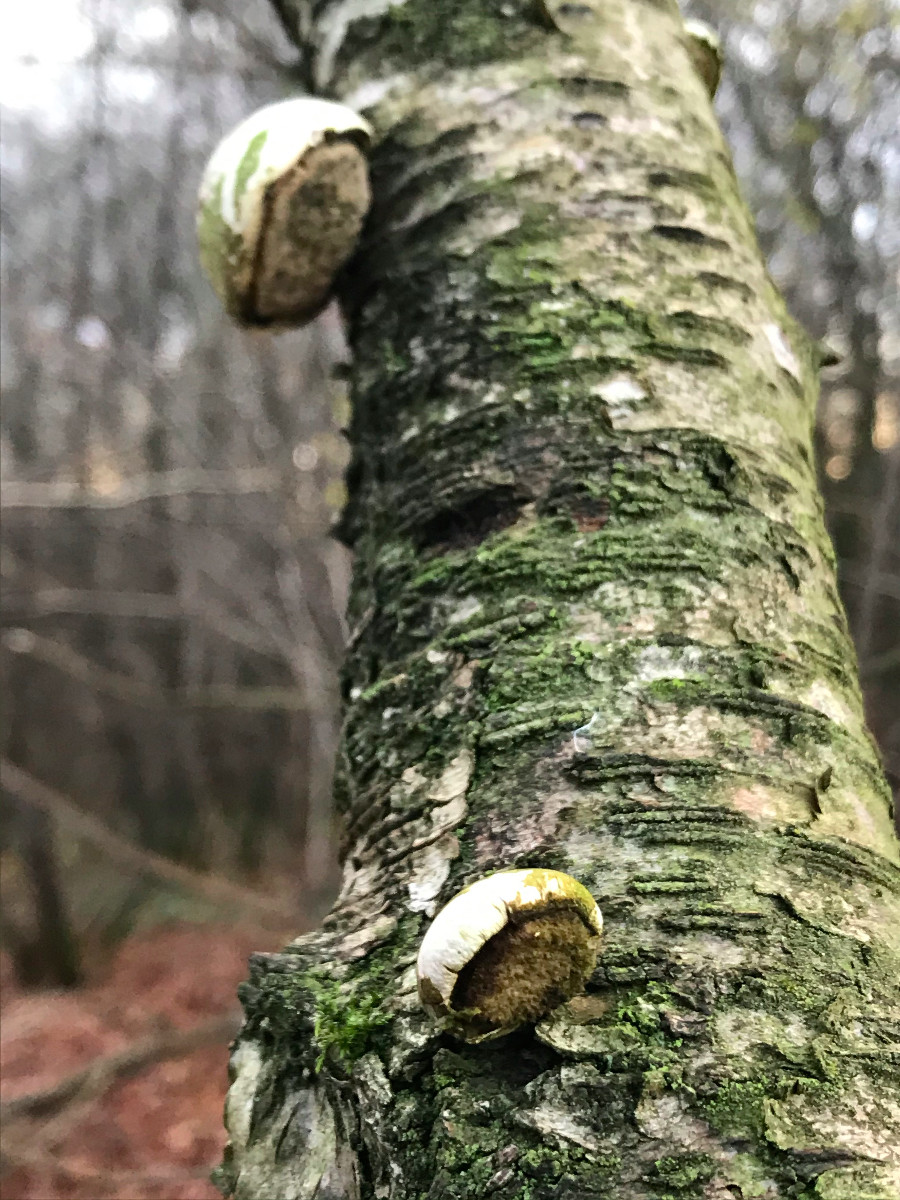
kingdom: Fungi
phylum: Basidiomycota
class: Agaricomycetes
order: Polyporales
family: Fomitopsidaceae
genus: Fomitopsis
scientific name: Fomitopsis betulina
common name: birkeporesvamp
